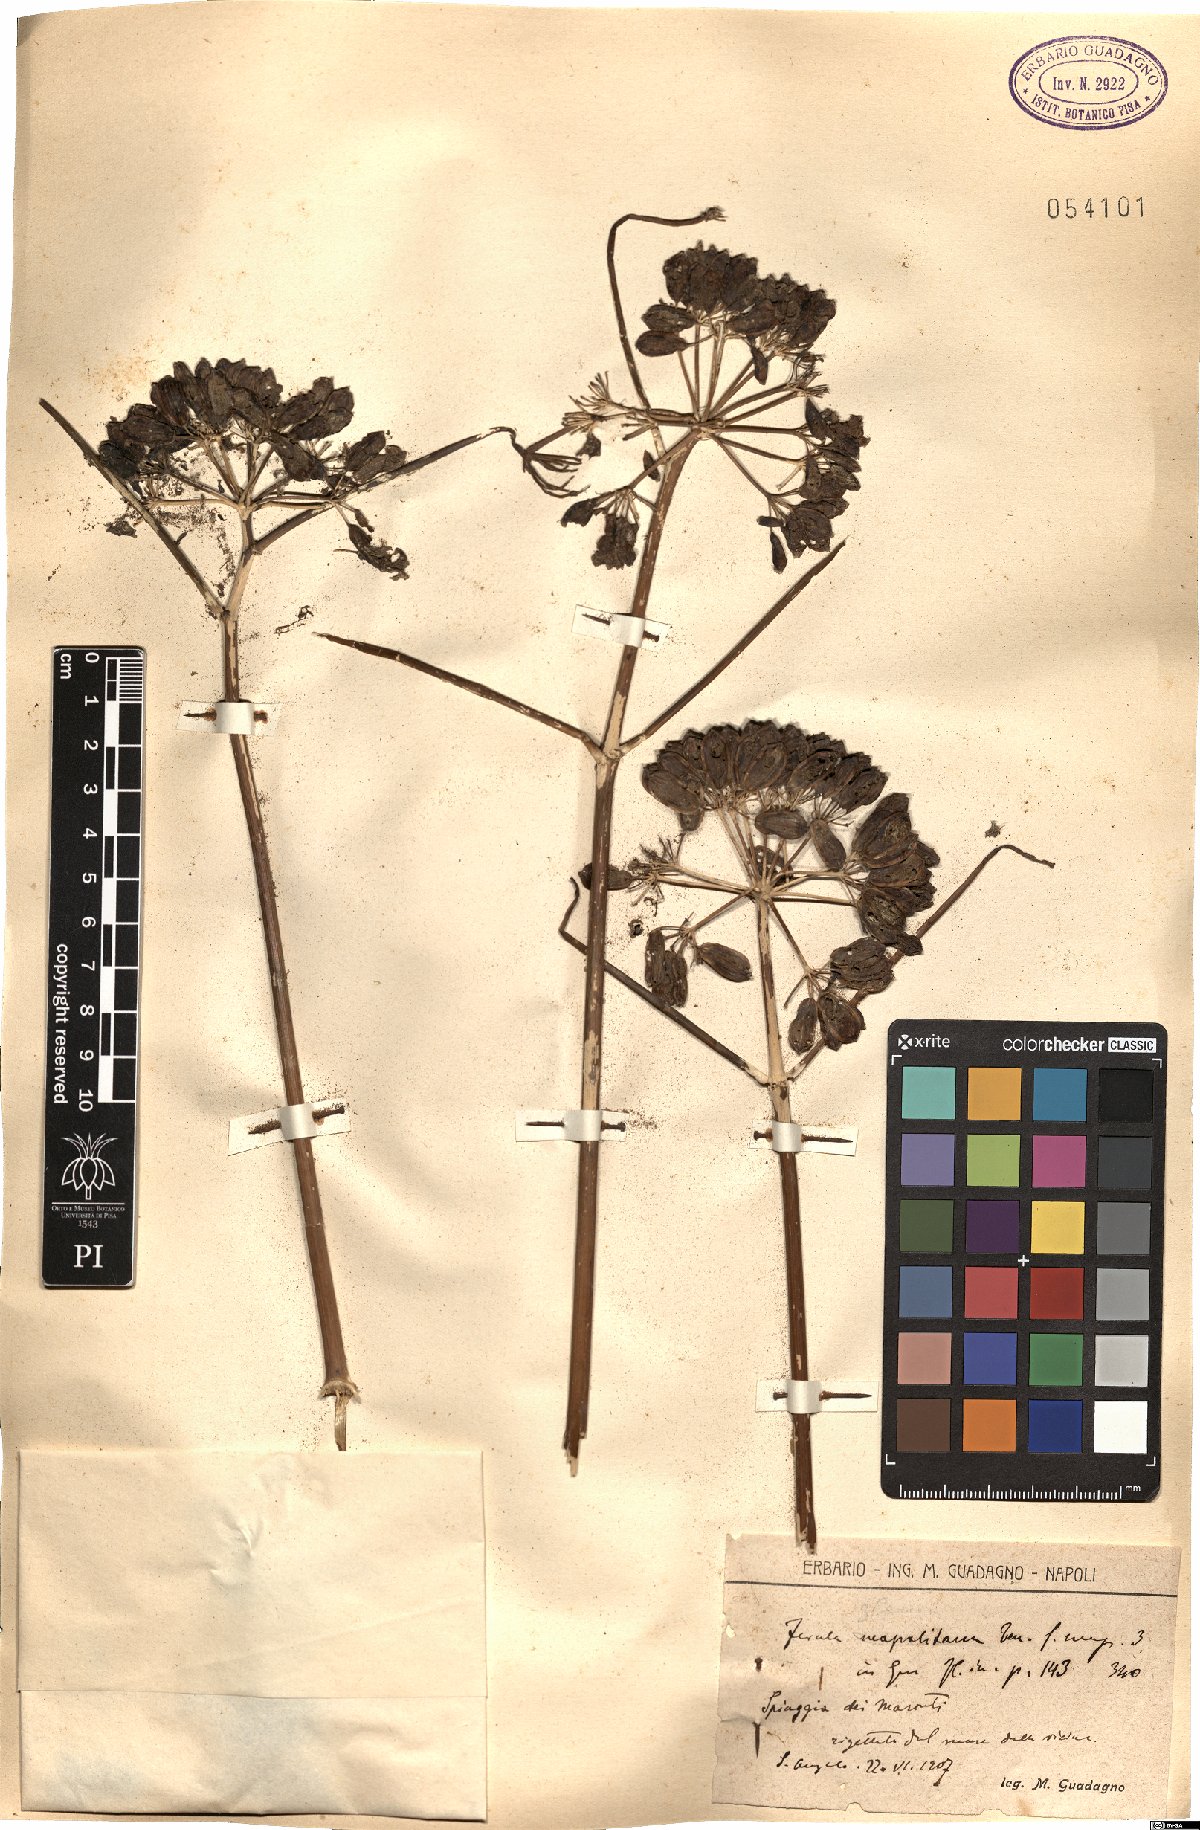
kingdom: Plantae
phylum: Tracheophyta
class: Magnoliopsida
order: Apiales
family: Apiaceae
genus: Ferula
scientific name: Ferula glauca
